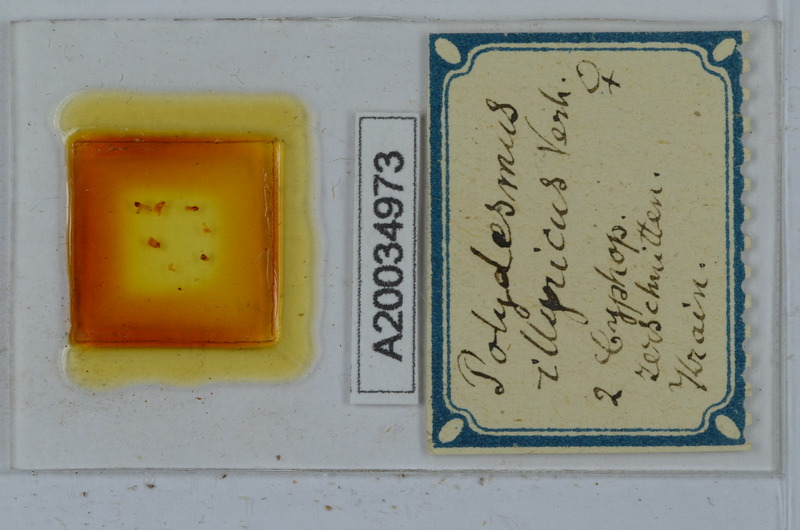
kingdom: Animalia
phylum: Arthropoda
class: Diplopoda
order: Polydesmida
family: Polydesmidae
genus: Polydesmus
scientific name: Polydesmus complanatus
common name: Flat-backed millipede
